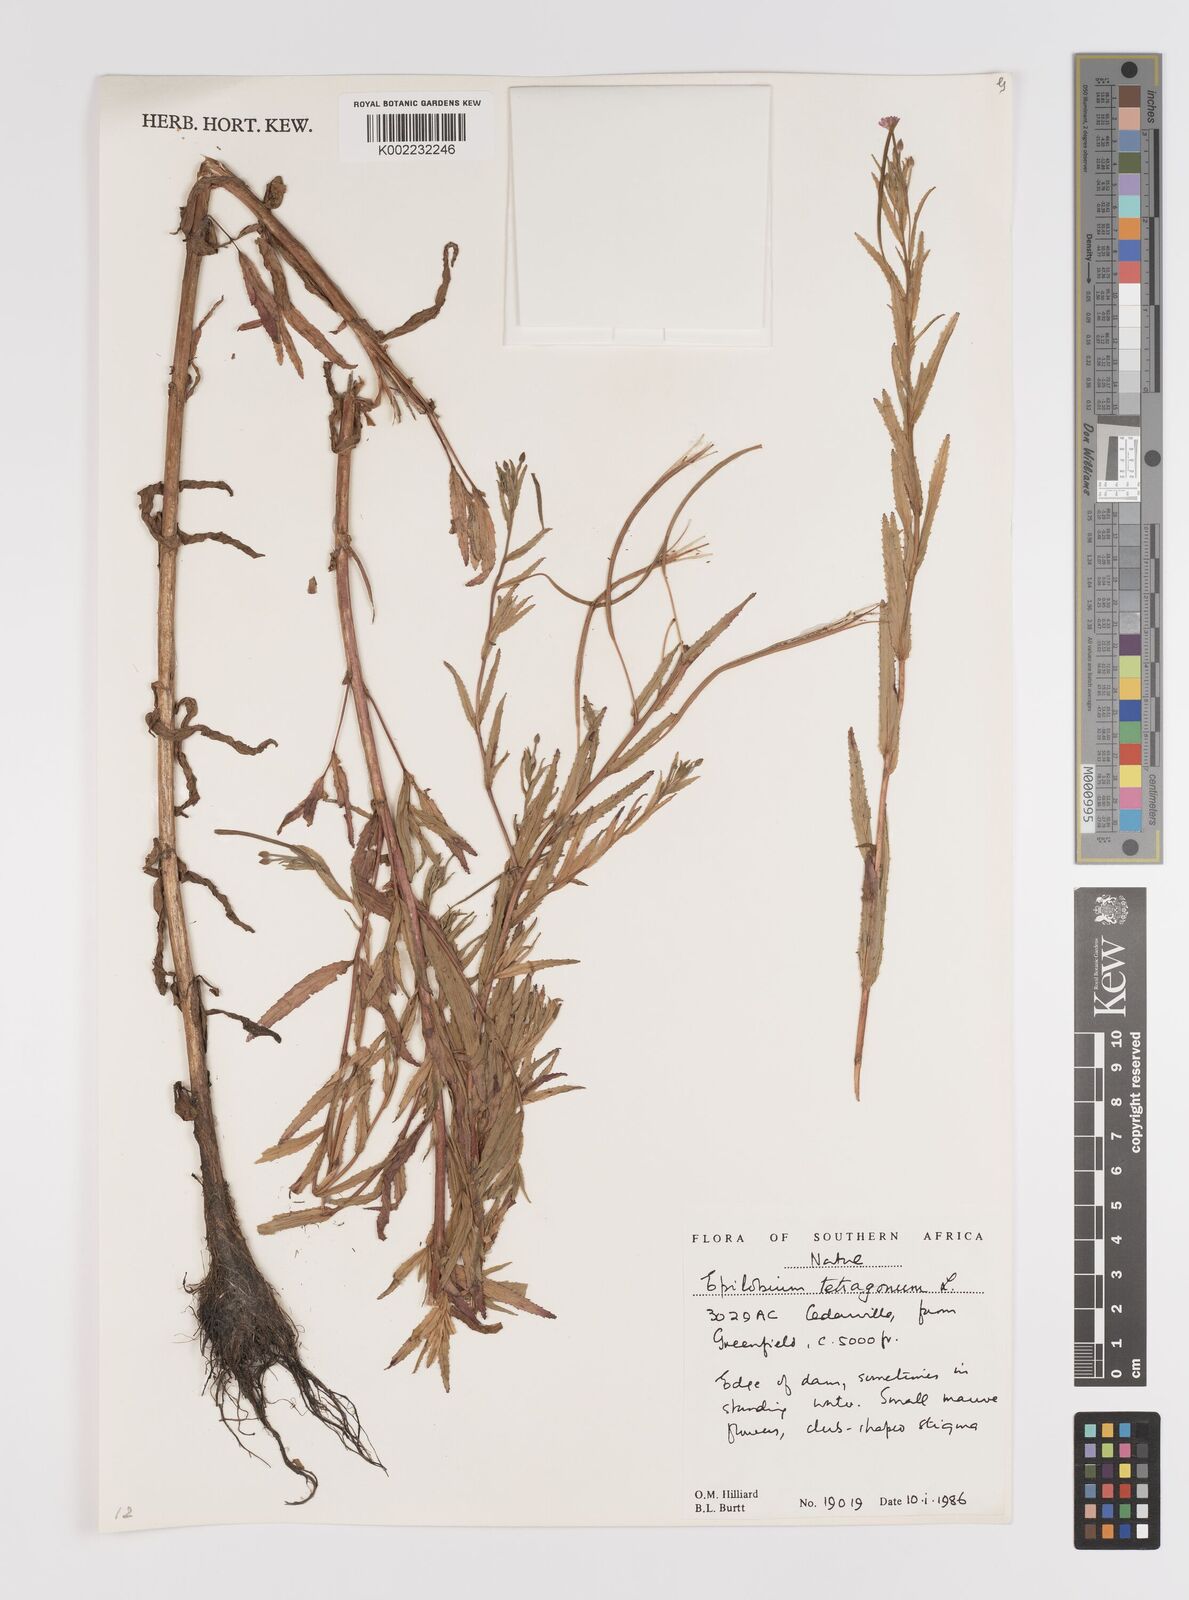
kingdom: Plantae
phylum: Tracheophyta
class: Magnoliopsida
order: Myrtales
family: Onagraceae
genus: Epilobium
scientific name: Epilobium tetragonum
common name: Square-stemmed willowherb
